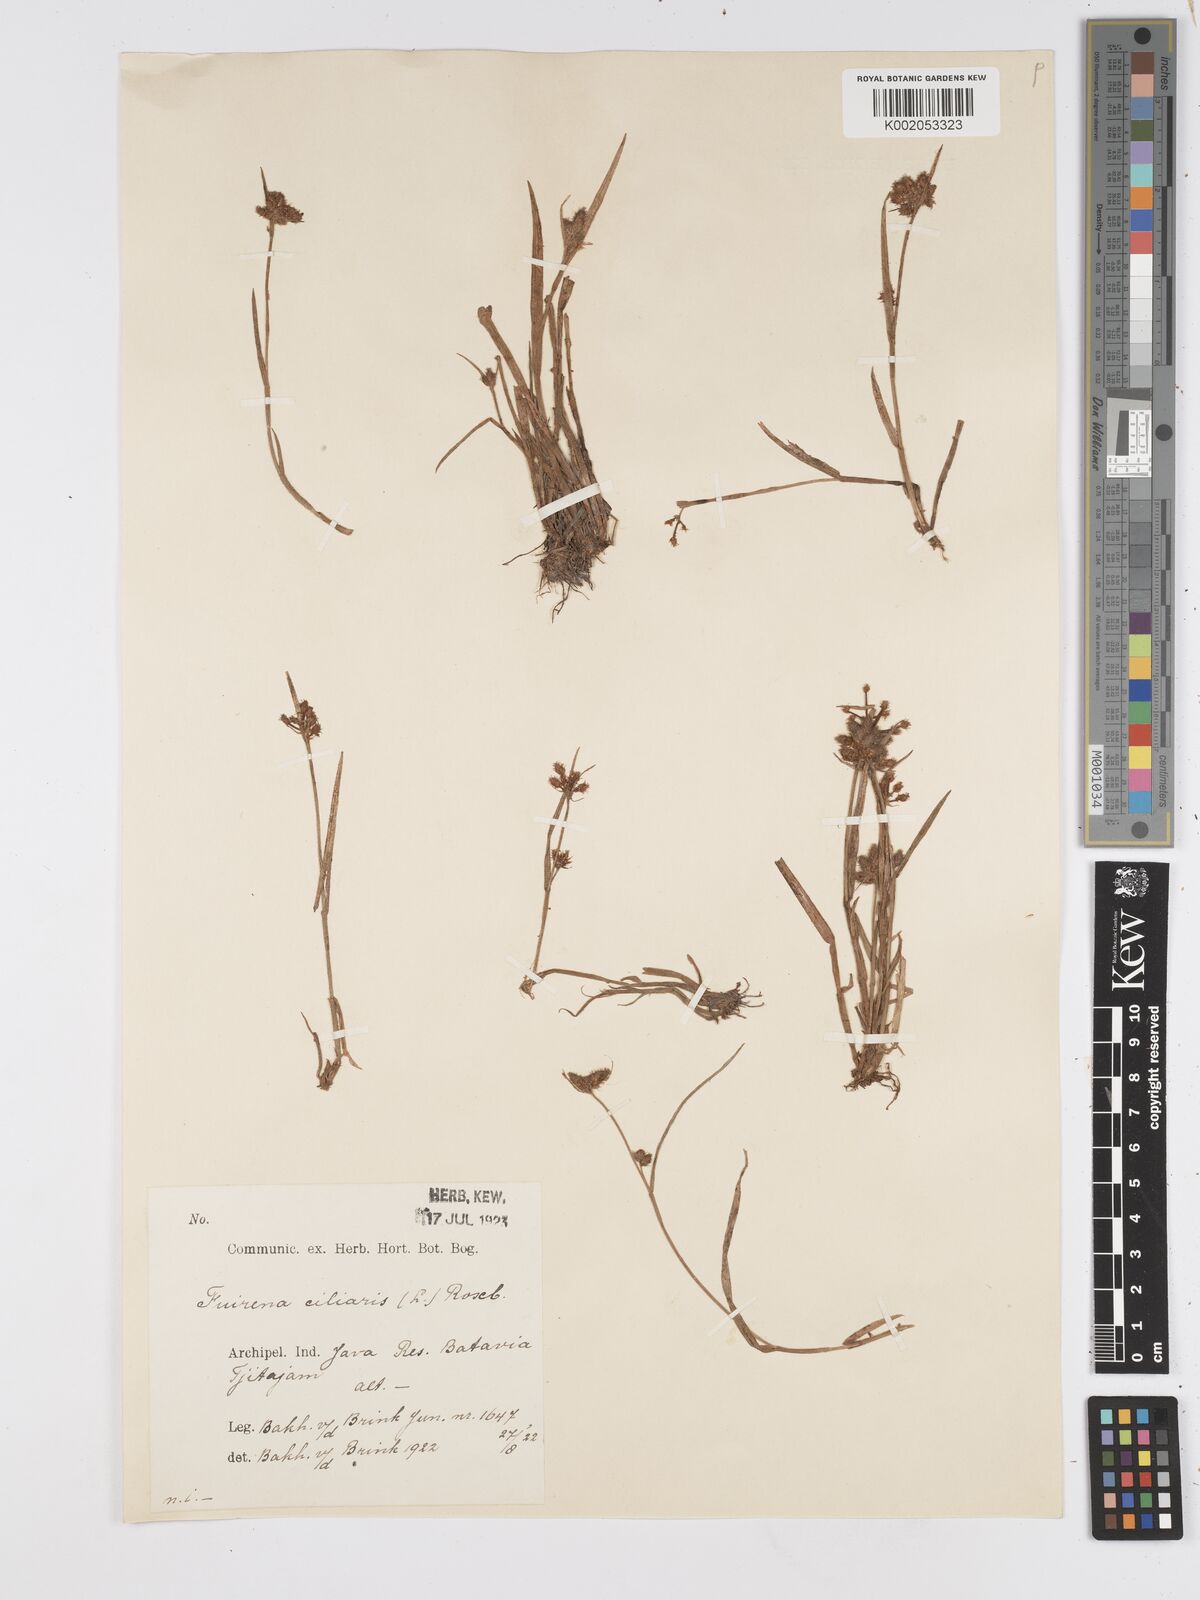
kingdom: Plantae
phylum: Tracheophyta
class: Liliopsida
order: Poales
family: Cyperaceae
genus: Fuirena
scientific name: Fuirena ciliaris
